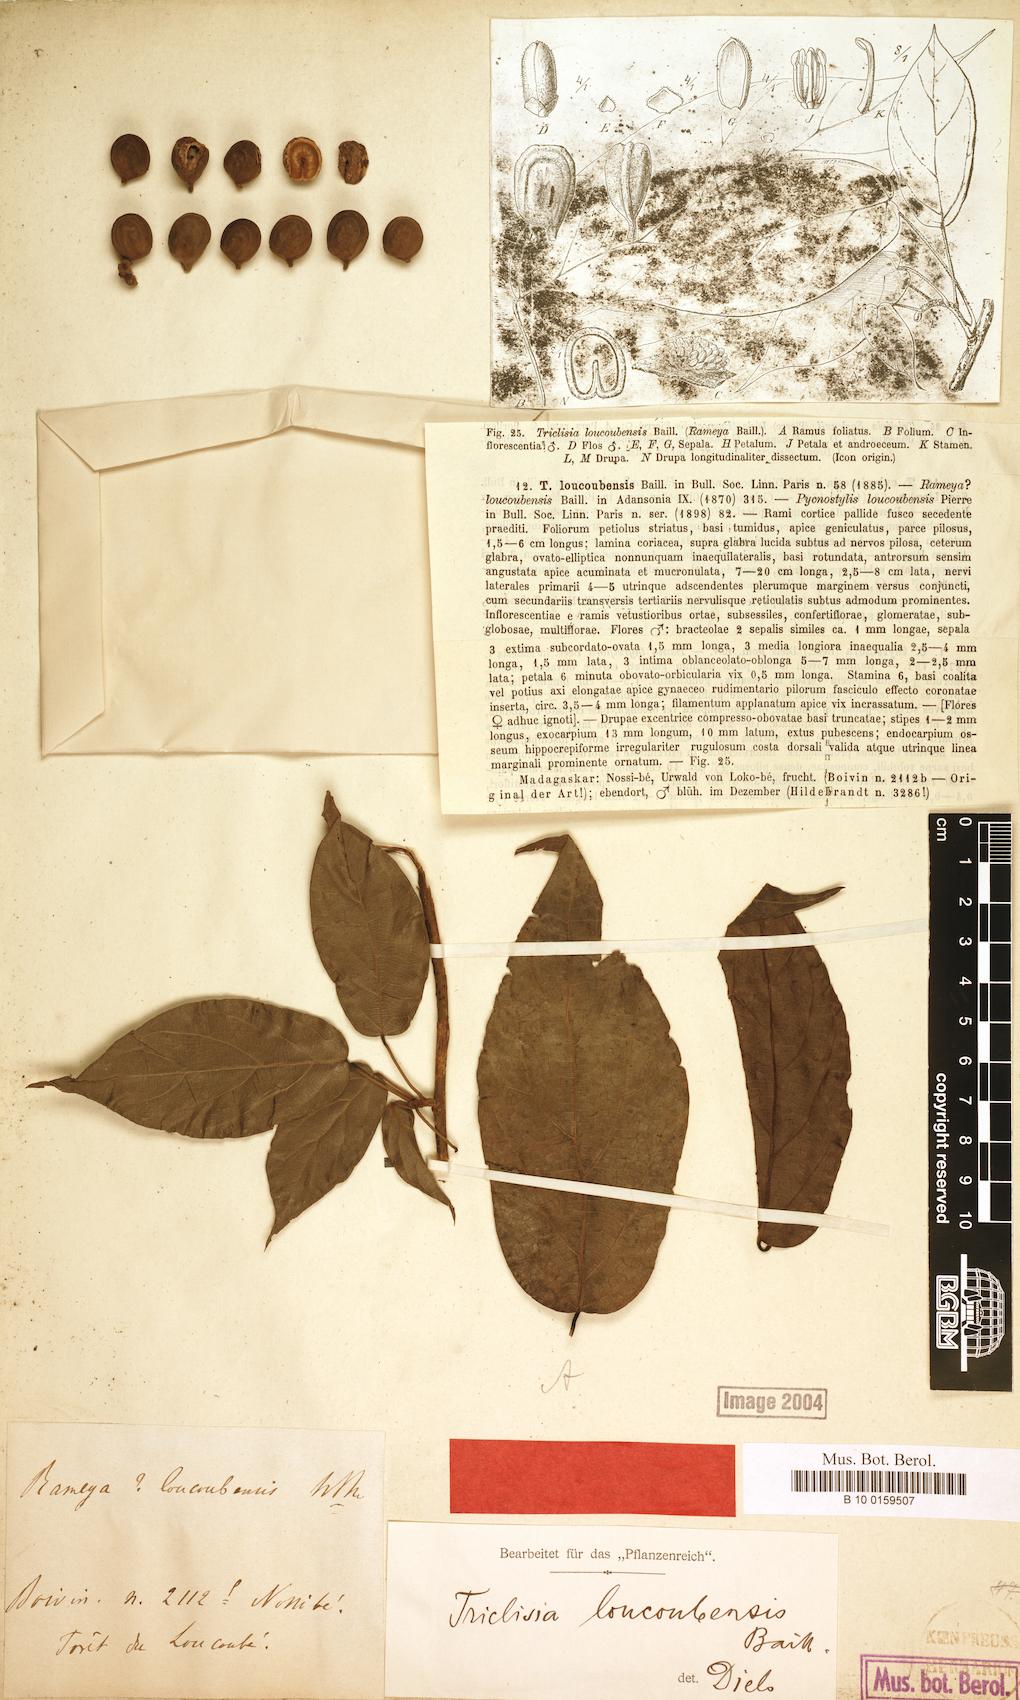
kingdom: Plantae
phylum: Tracheophyta
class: Magnoliopsida
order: Ranunculales
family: Menispermaceae
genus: Triclisia
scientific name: Triclisia loucoubensis
